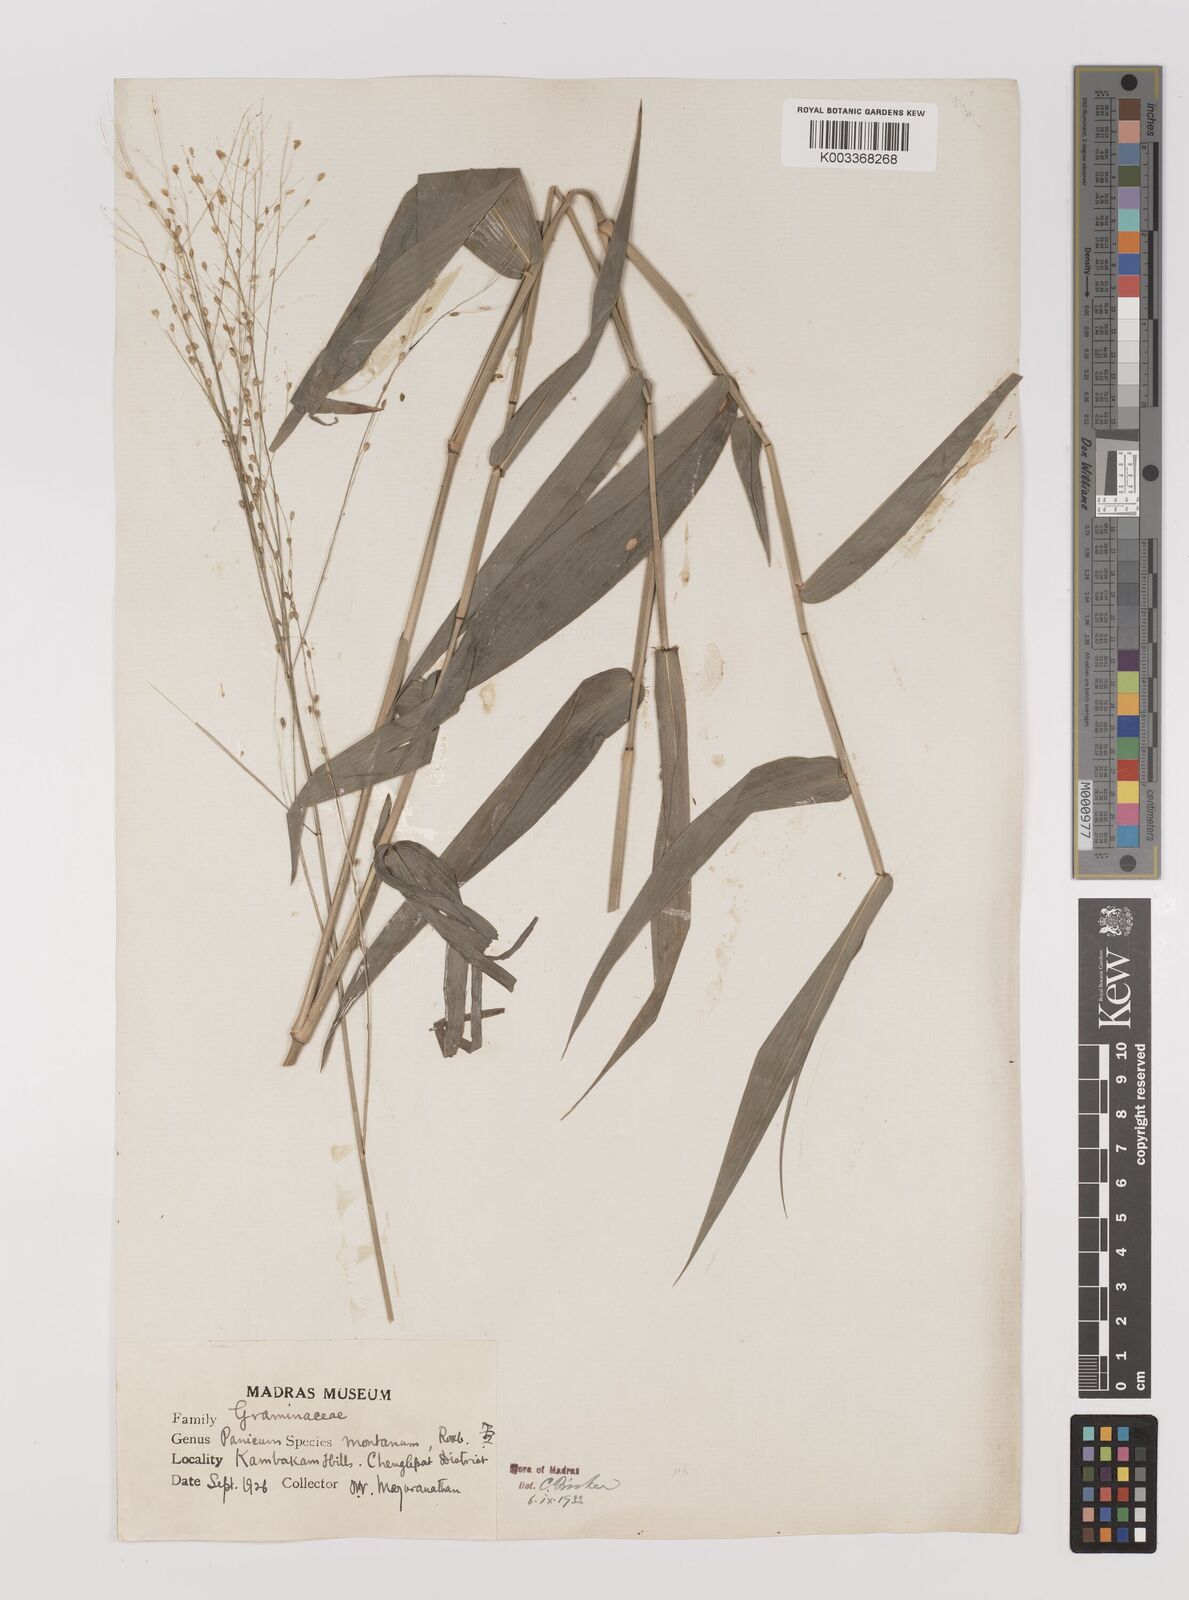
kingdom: Plantae
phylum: Tracheophyta
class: Liliopsida
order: Poales
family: Poaceae
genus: Panicum
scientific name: Panicum notatum
